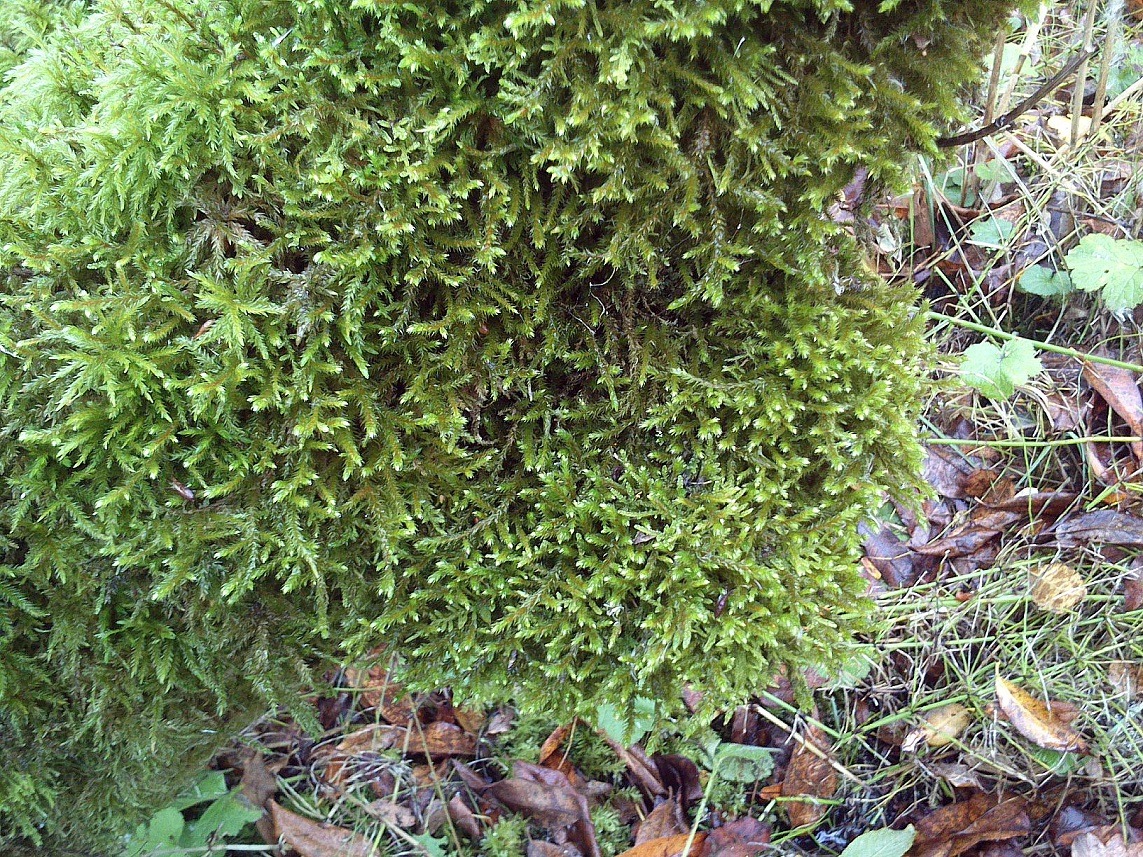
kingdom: Plantae
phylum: Bryophyta
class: Bryopsida
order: Hypnales
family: Antitrichiaceae
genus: Antitrichia
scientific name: Antitrichia curtipendula
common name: Åben krogtand
